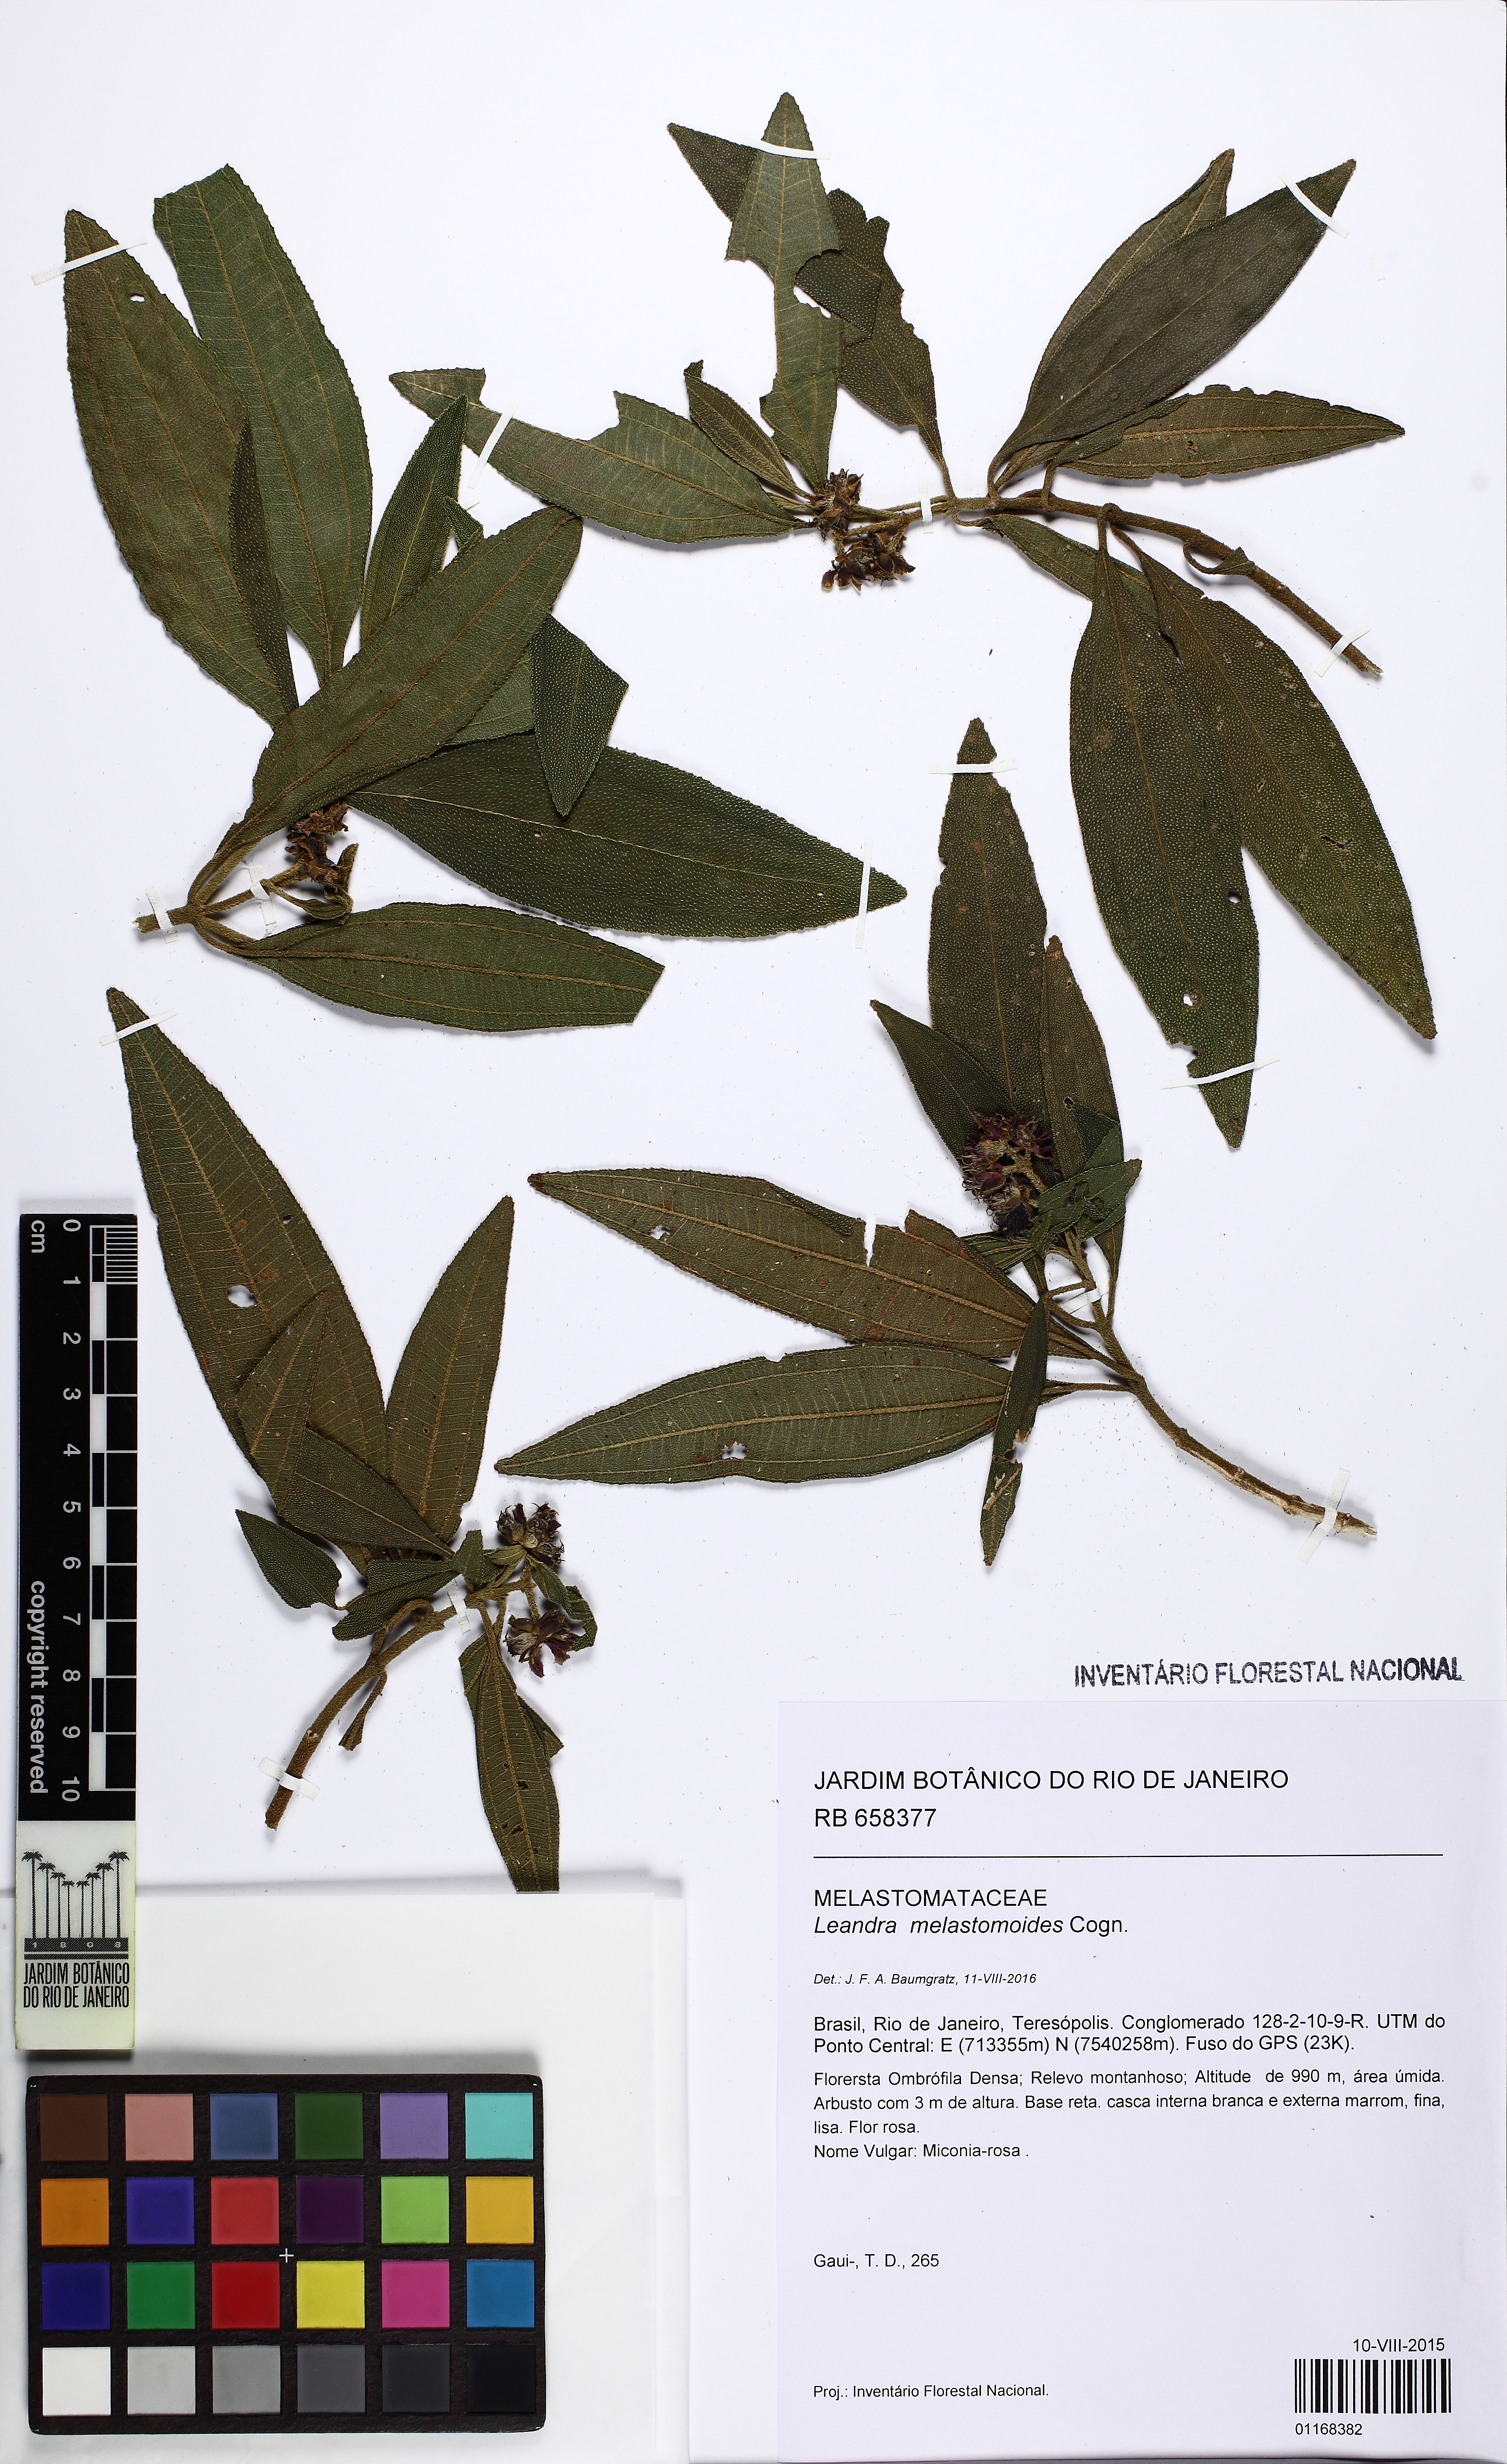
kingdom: Plantae
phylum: Tracheophyta
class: Magnoliopsida
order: Myrtales
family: Melastomataceae
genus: Miconia
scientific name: Miconia melastomoides
